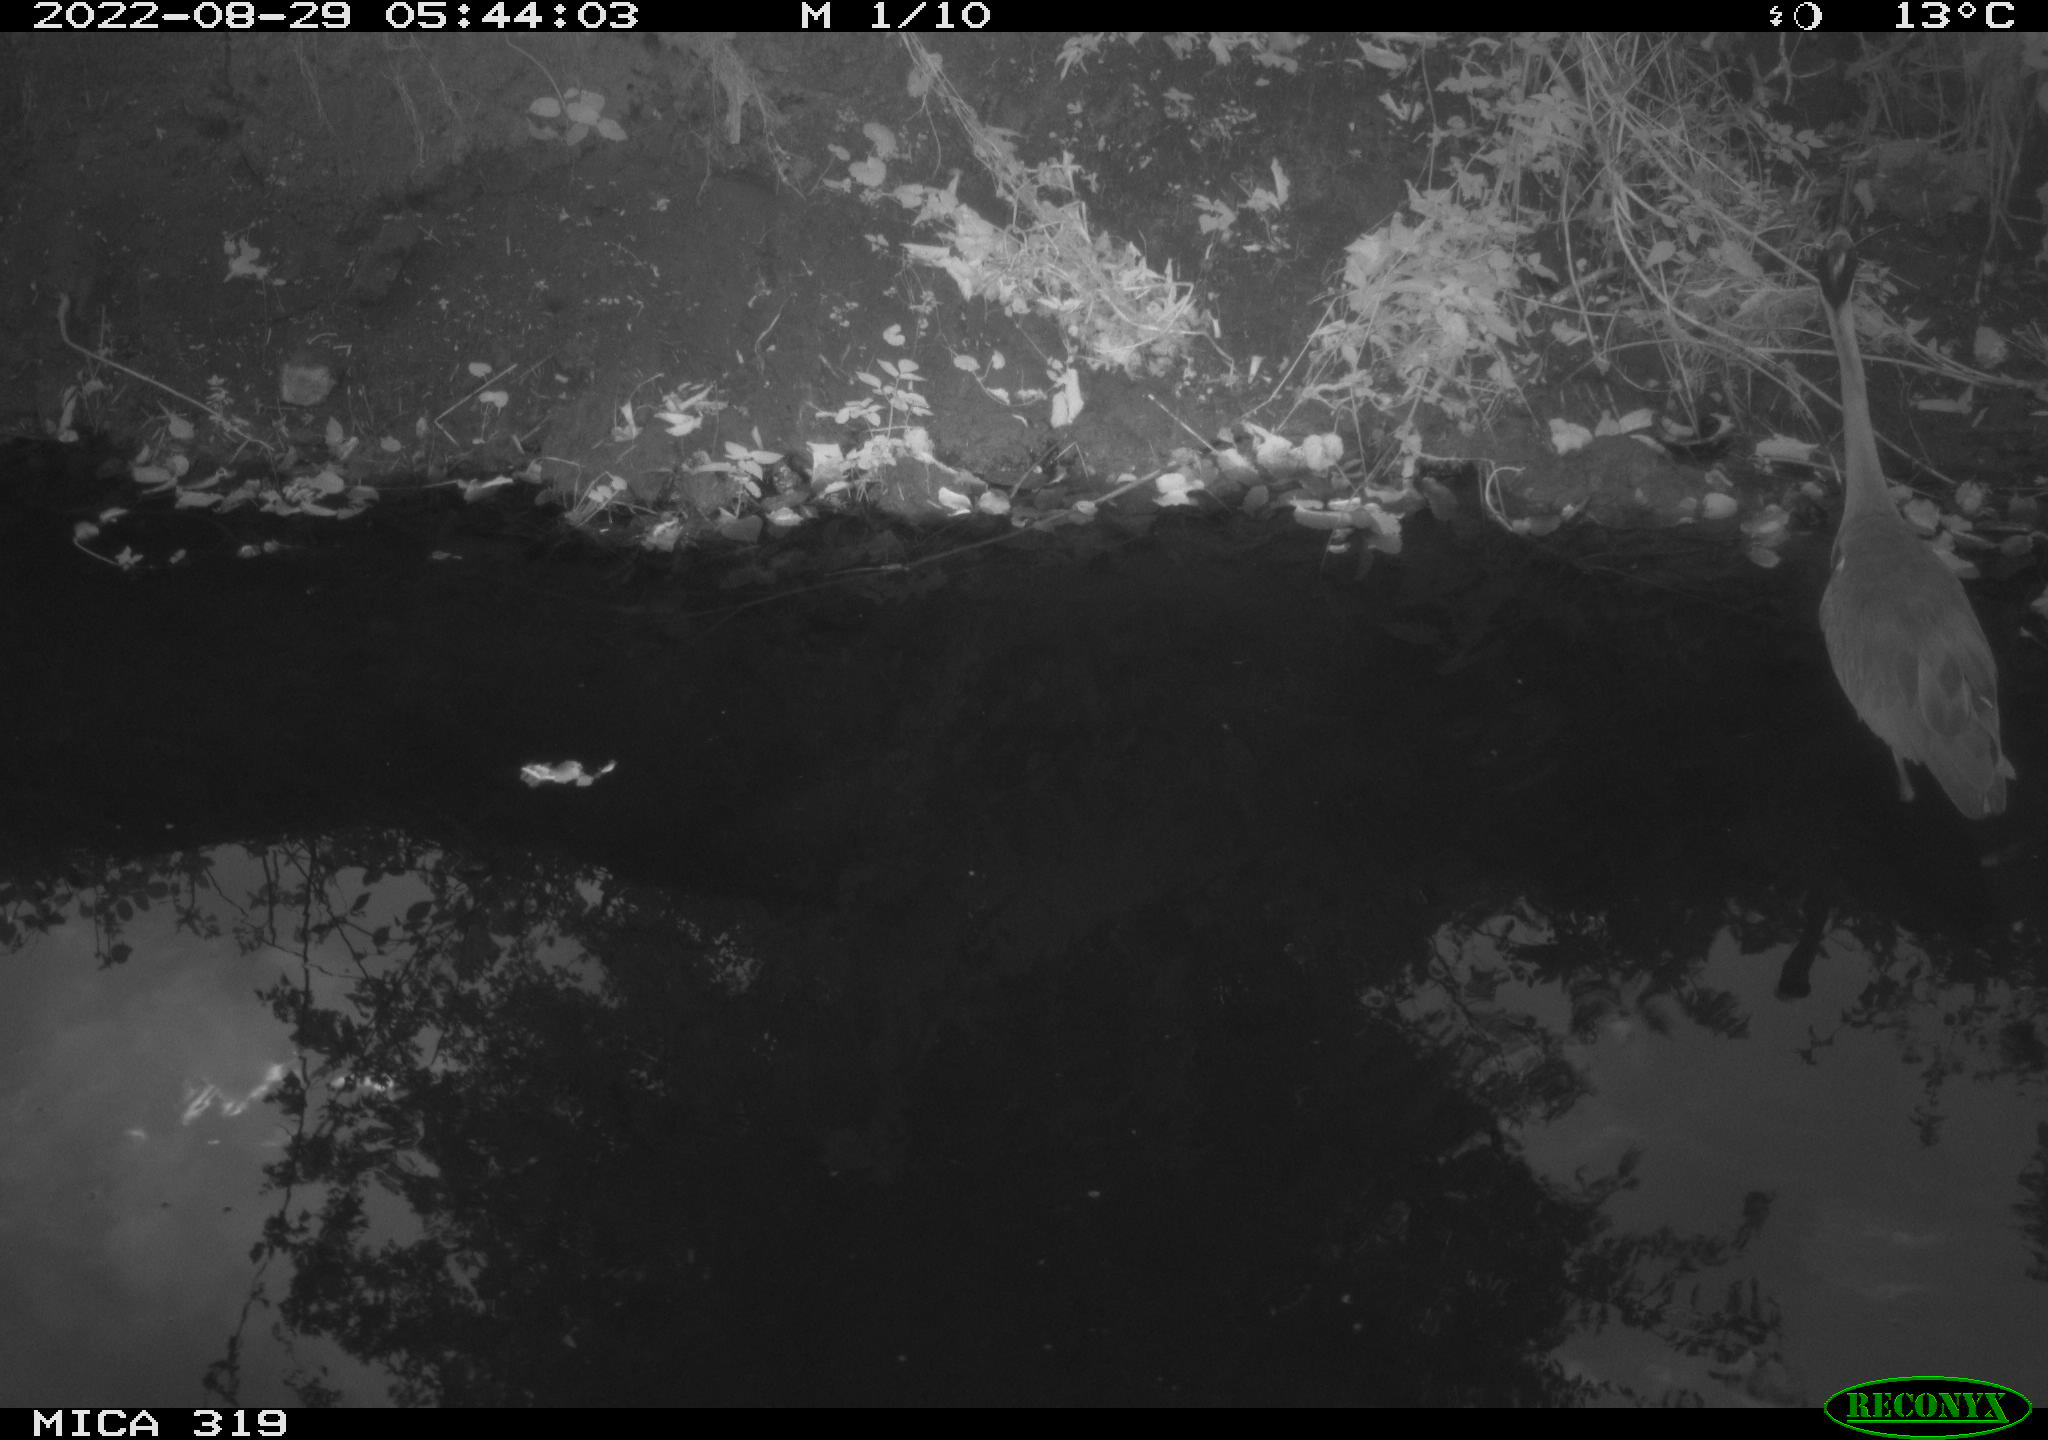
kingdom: Animalia
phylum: Chordata
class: Aves
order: Pelecaniformes
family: Ardeidae
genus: Ardea
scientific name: Ardea cinerea
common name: Grey heron
